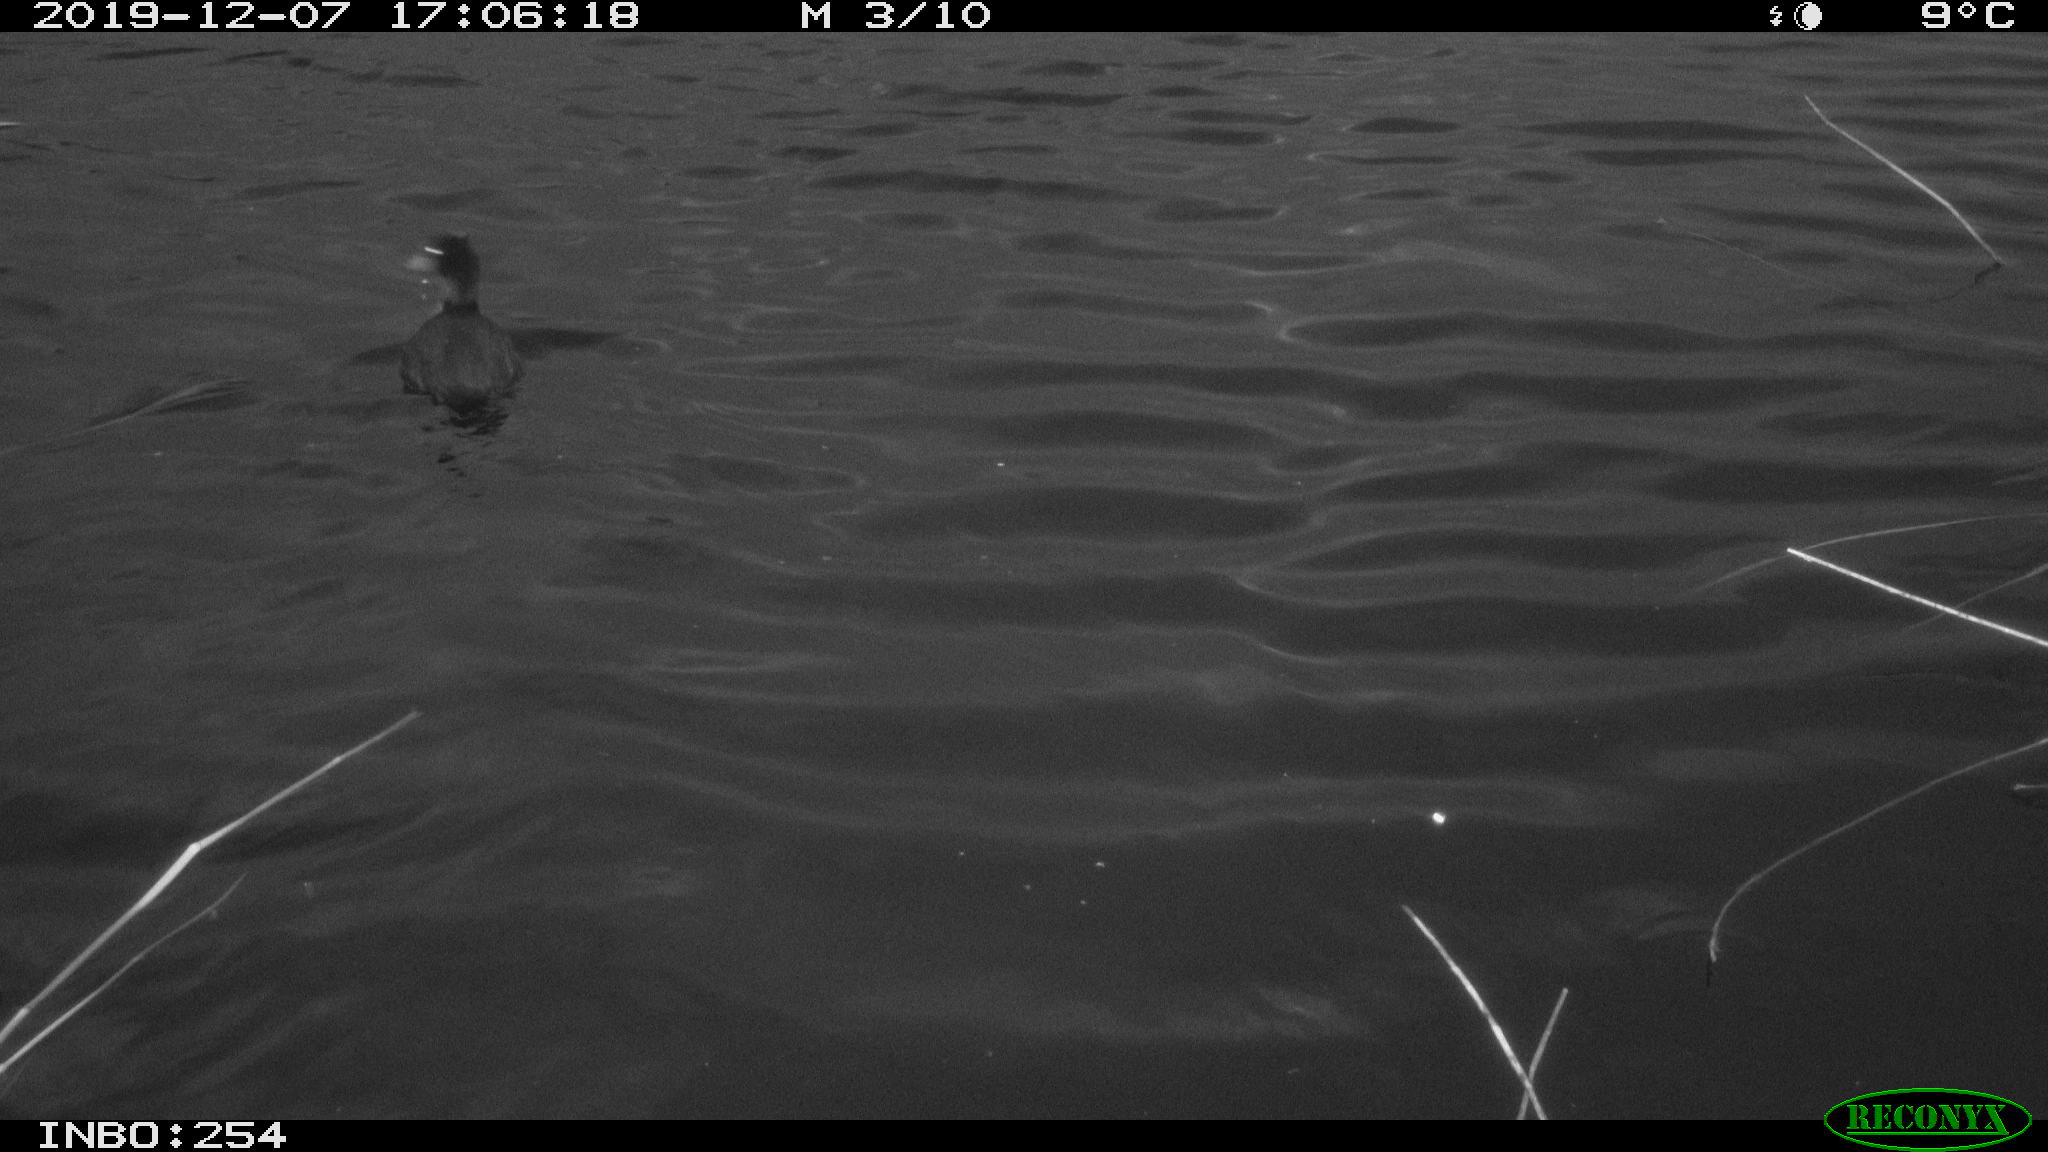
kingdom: Animalia
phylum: Chordata
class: Aves
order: Gruiformes
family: Rallidae
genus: Fulica
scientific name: Fulica atra
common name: Eurasian coot
